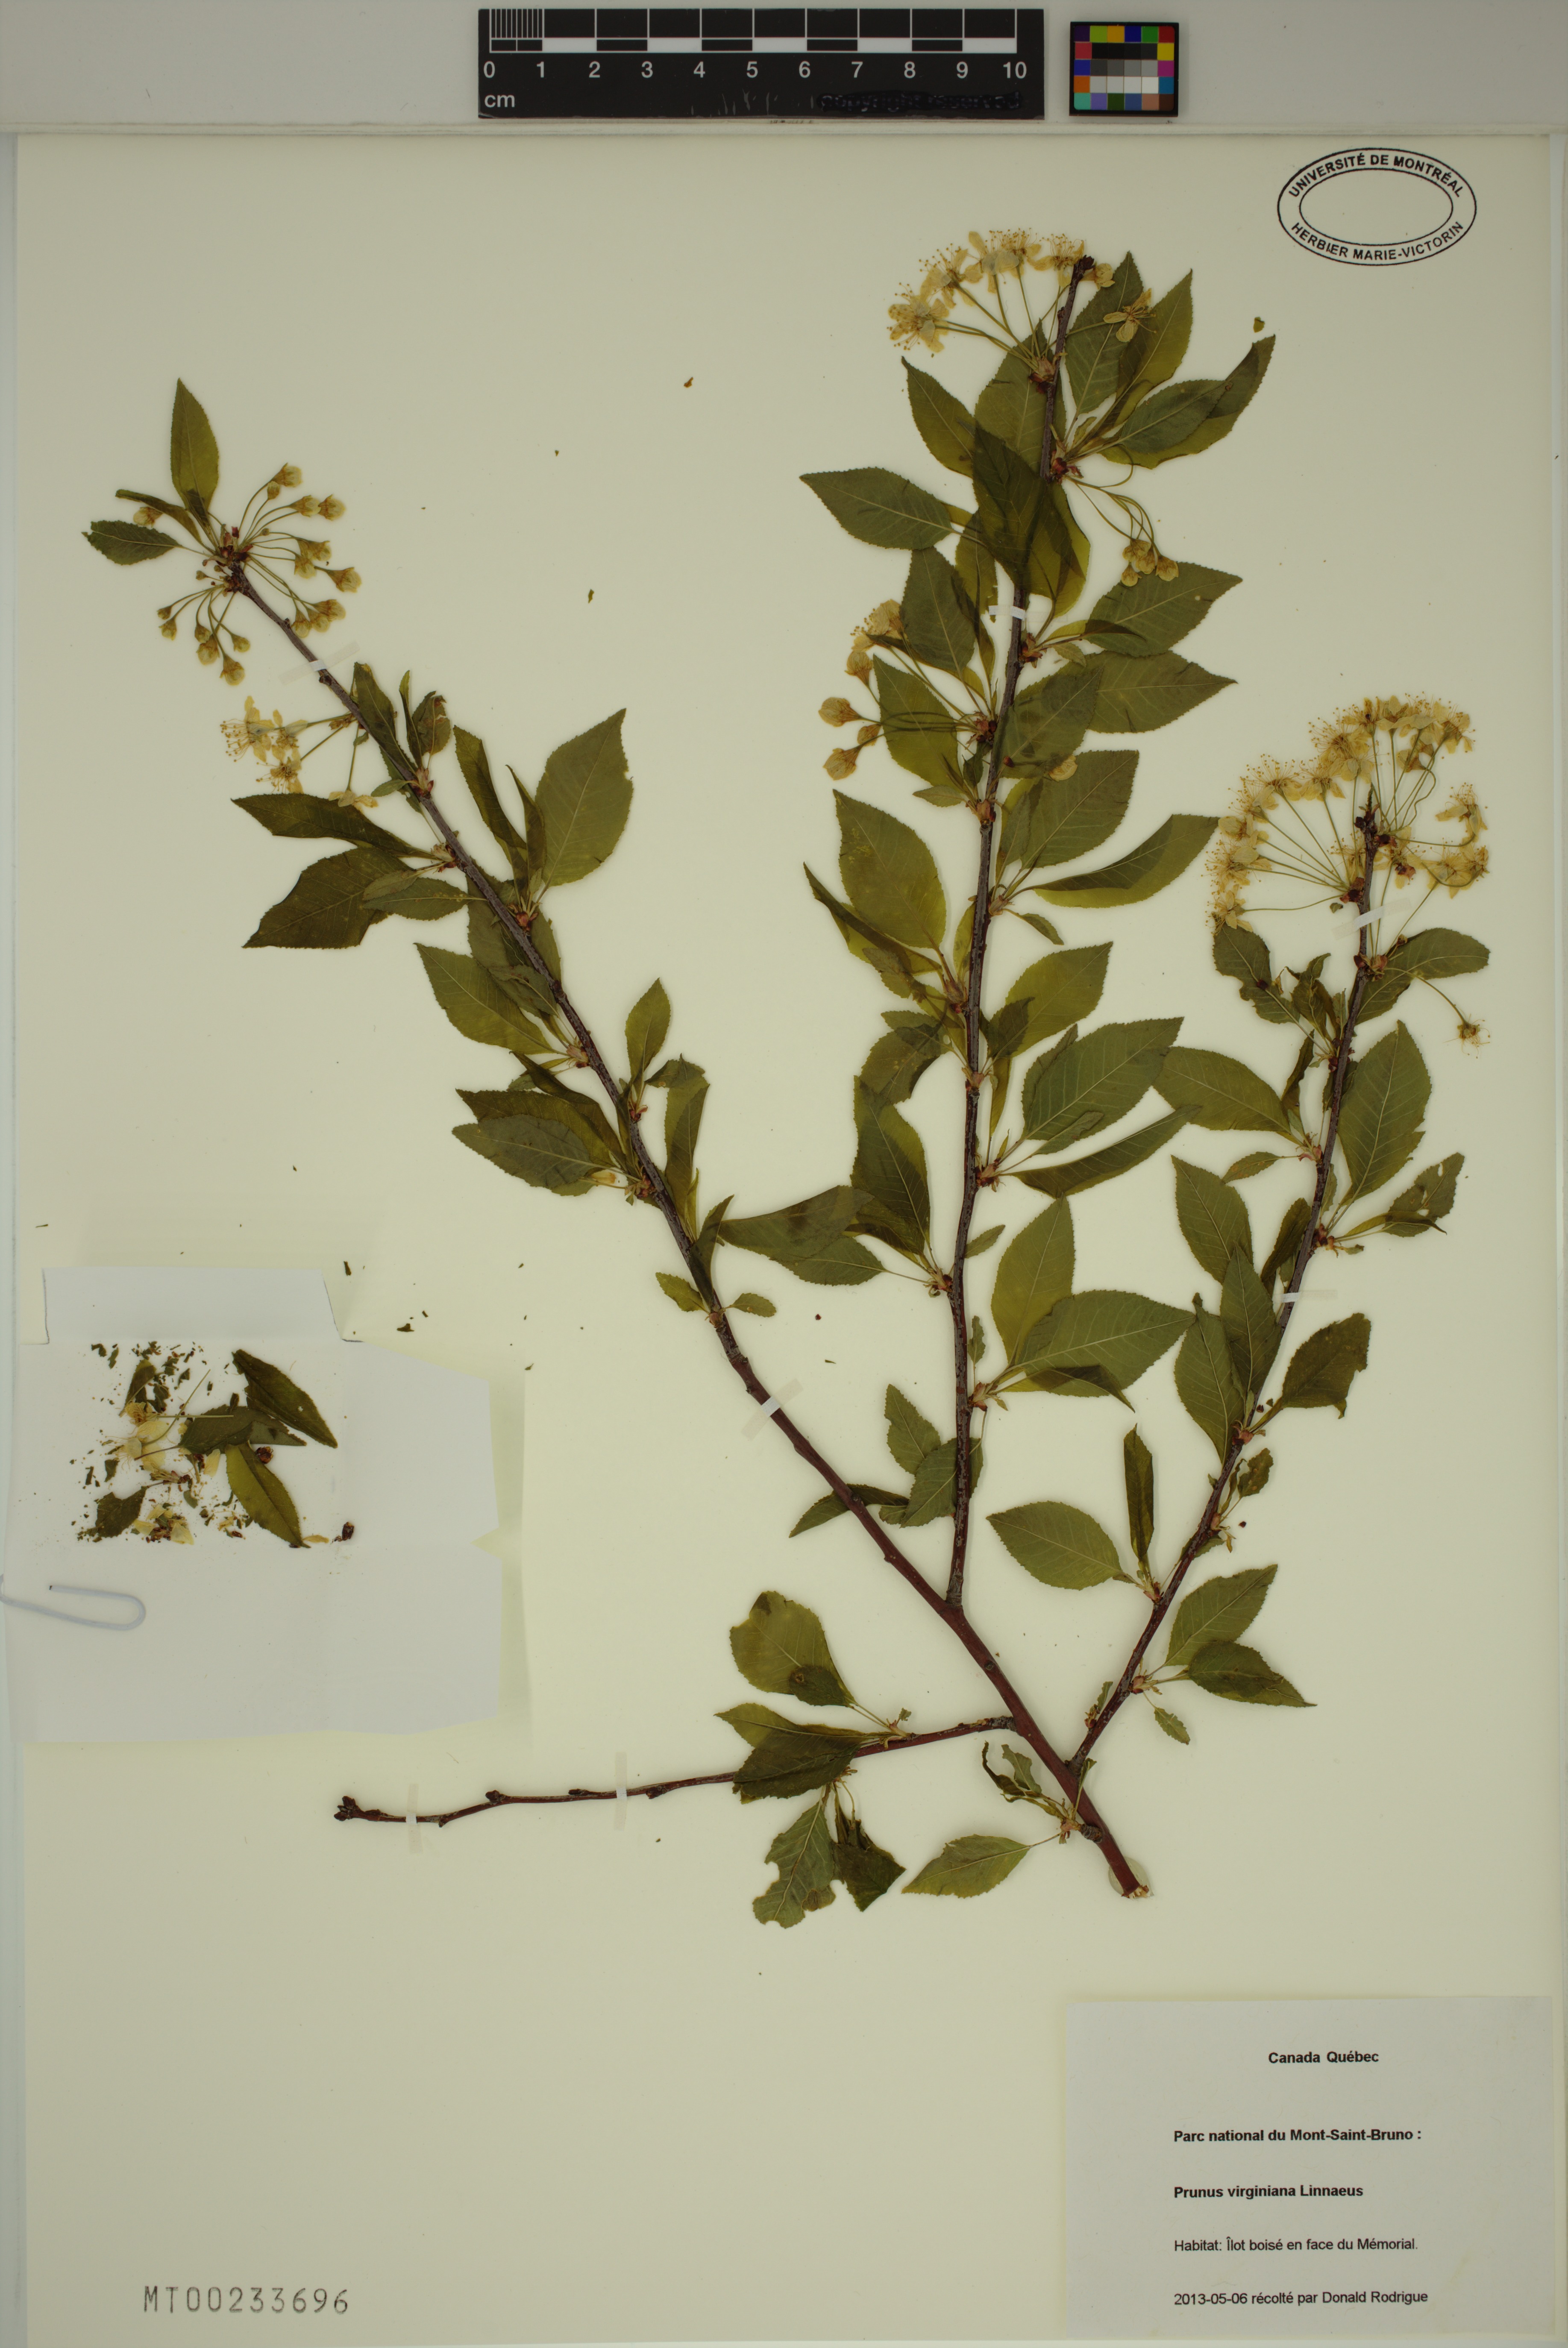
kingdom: Plantae
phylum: Tracheophyta
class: Magnoliopsida
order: Rosales
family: Rosaceae
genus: Prunus
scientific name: Prunus virginiana
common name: Chokecherry
